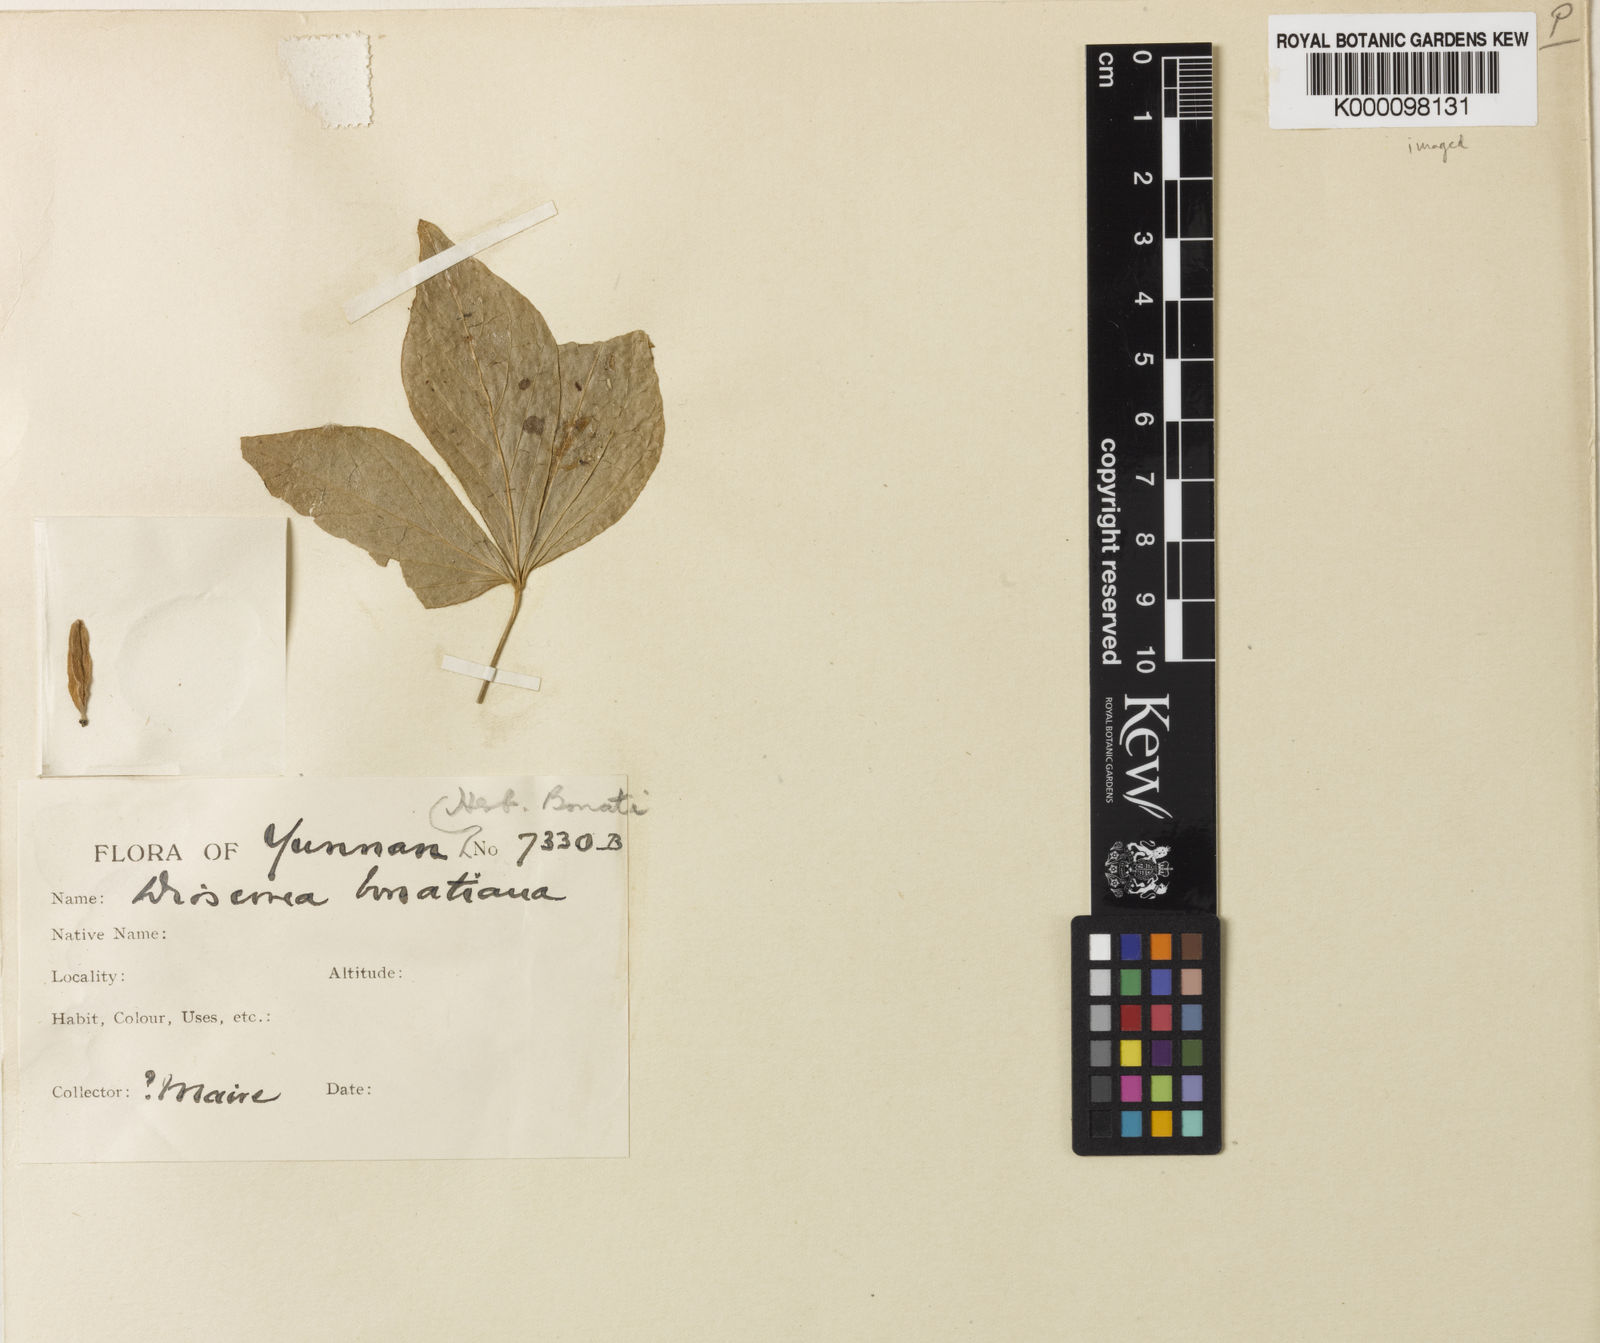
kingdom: Plantae
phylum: Tracheophyta
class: Liliopsida
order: Dioscoreales
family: Dioscoreaceae
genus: Dioscorea
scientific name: Dioscorea kamoonensis
